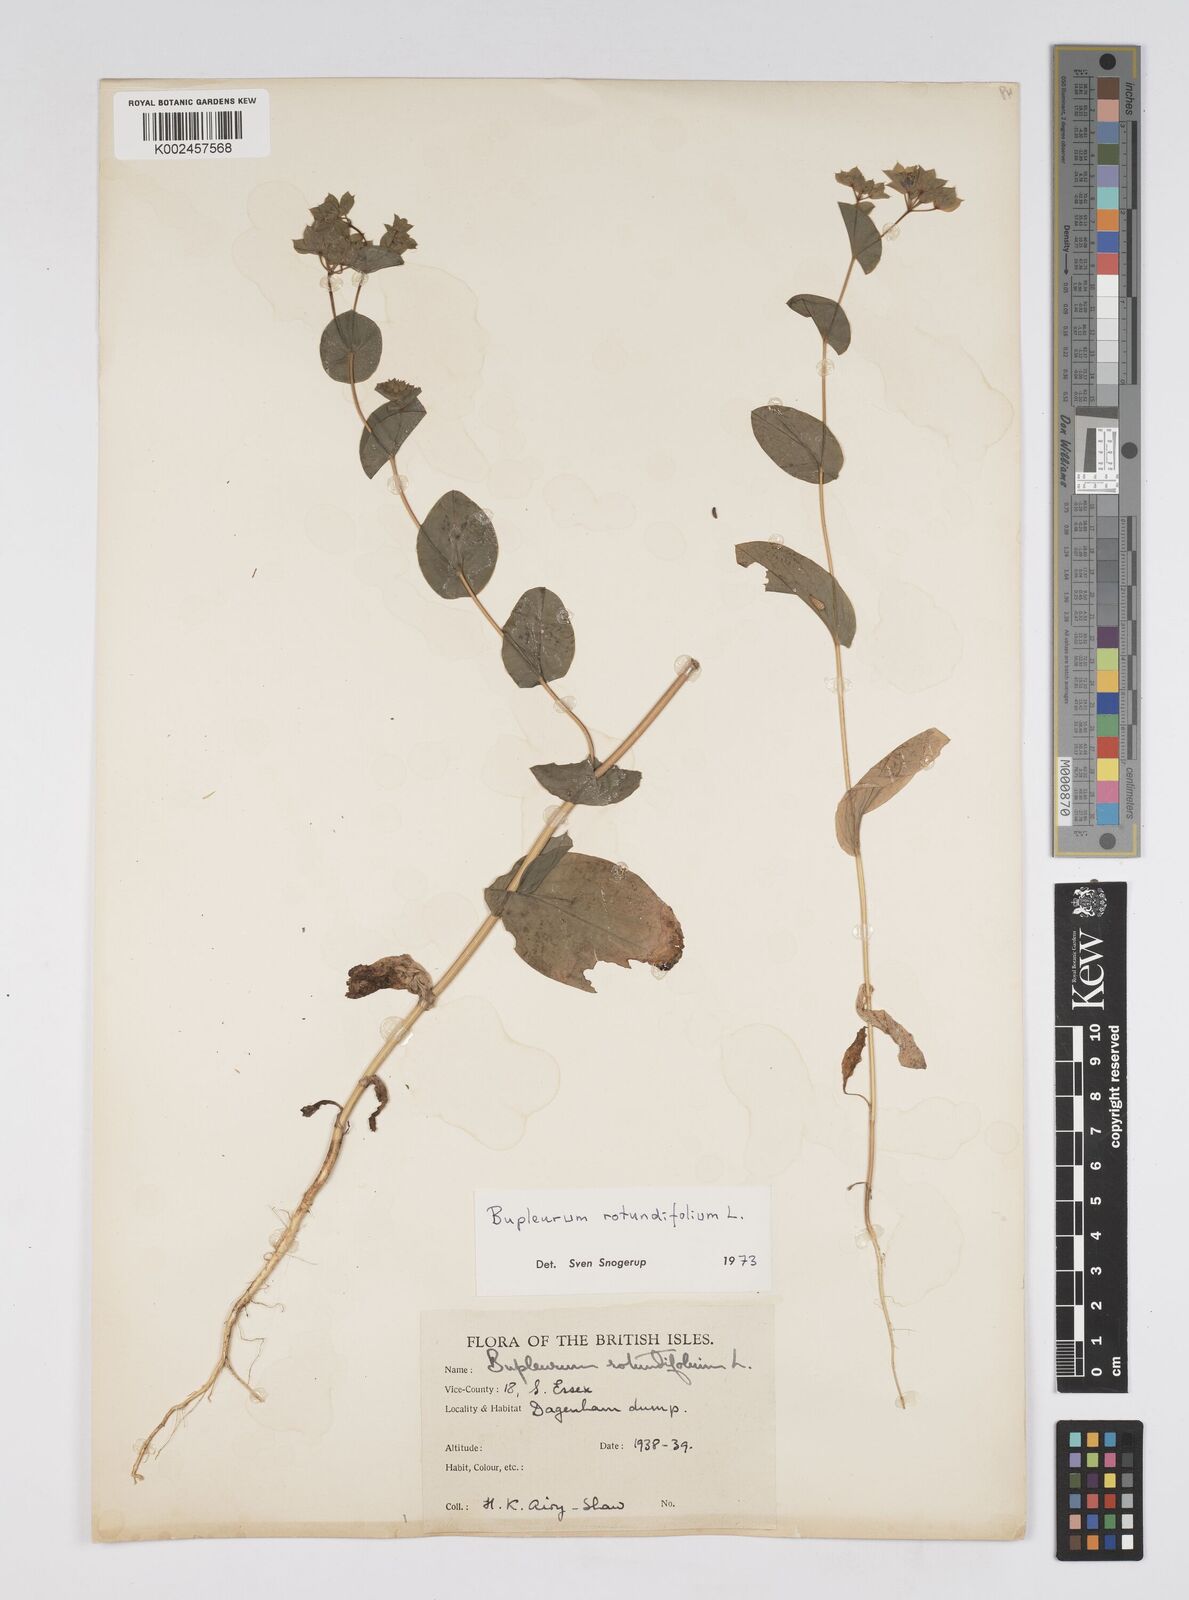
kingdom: Plantae
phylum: Tracheophyta
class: Magnoliopsida
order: Apiales
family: Apiaceae
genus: Bupleurum
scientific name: Bupleurum rotundifolium
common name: Thorow-wax
